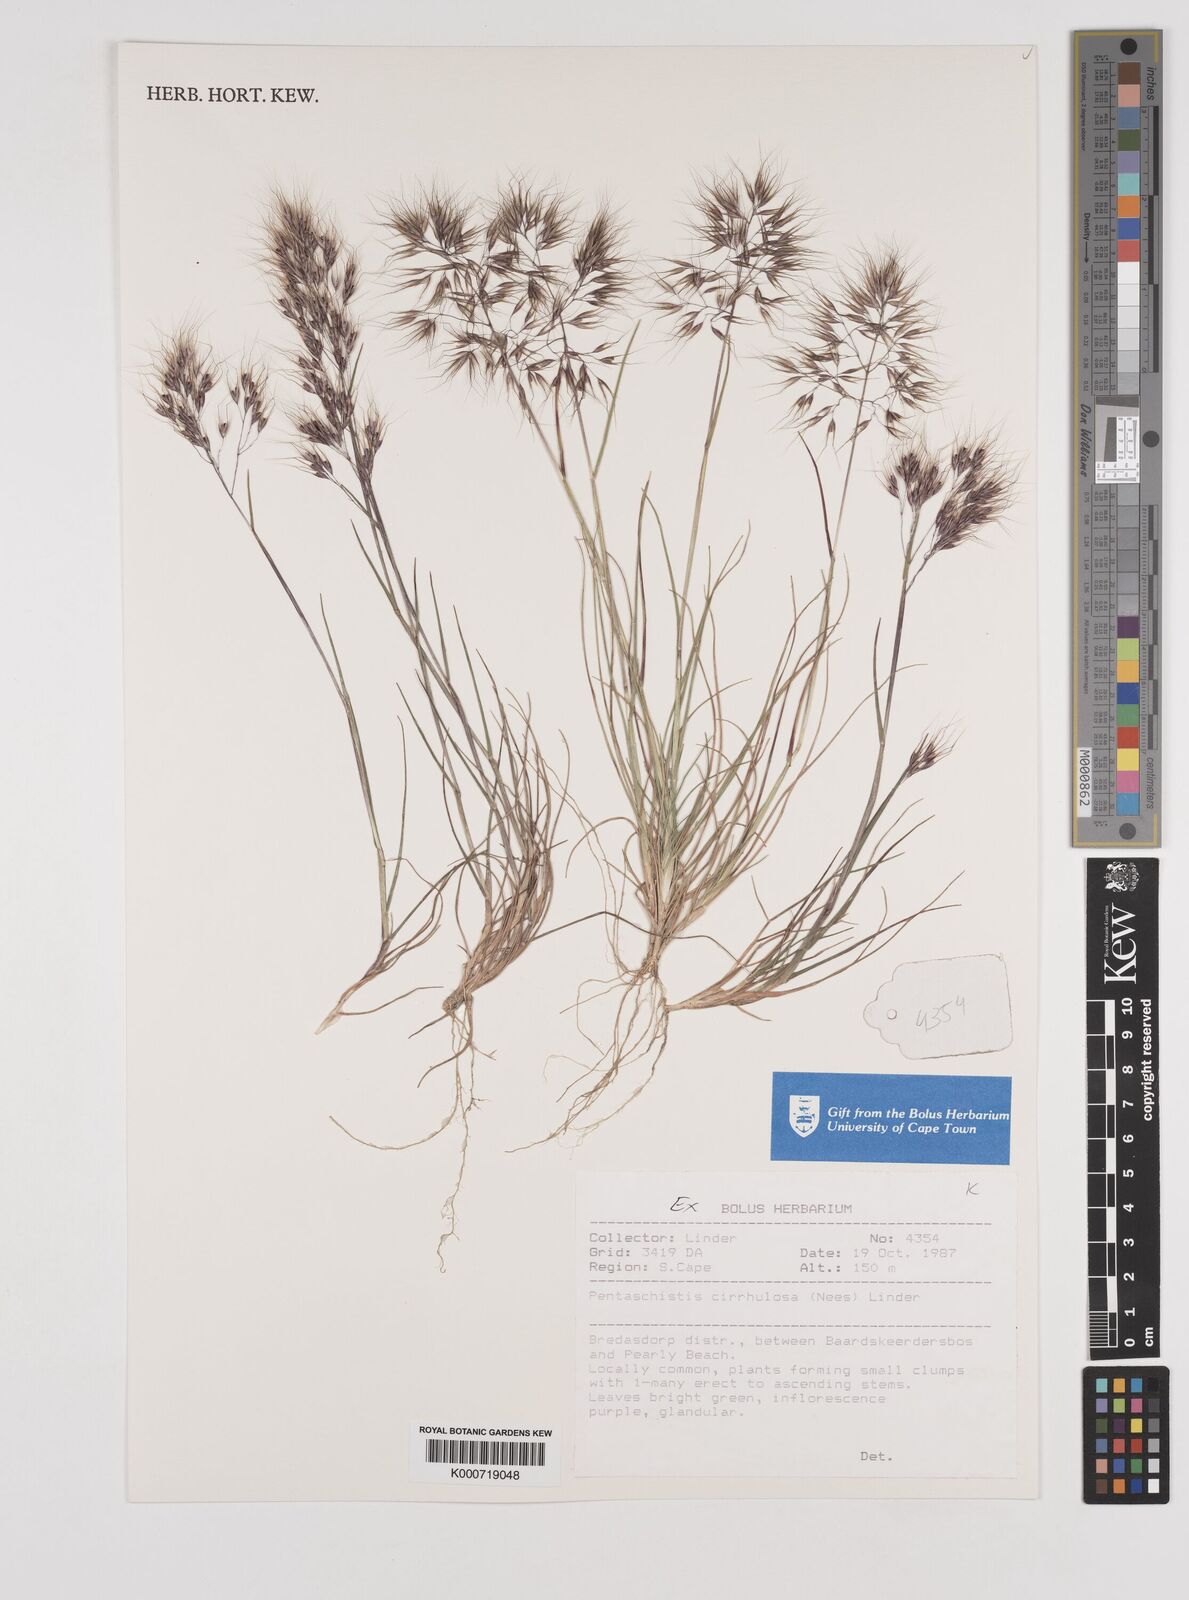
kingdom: Plantae
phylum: Tracheophyta
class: Liliopsida
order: Poales
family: Poaceae
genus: Pentameris
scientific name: Pentameris cirrhulosa
